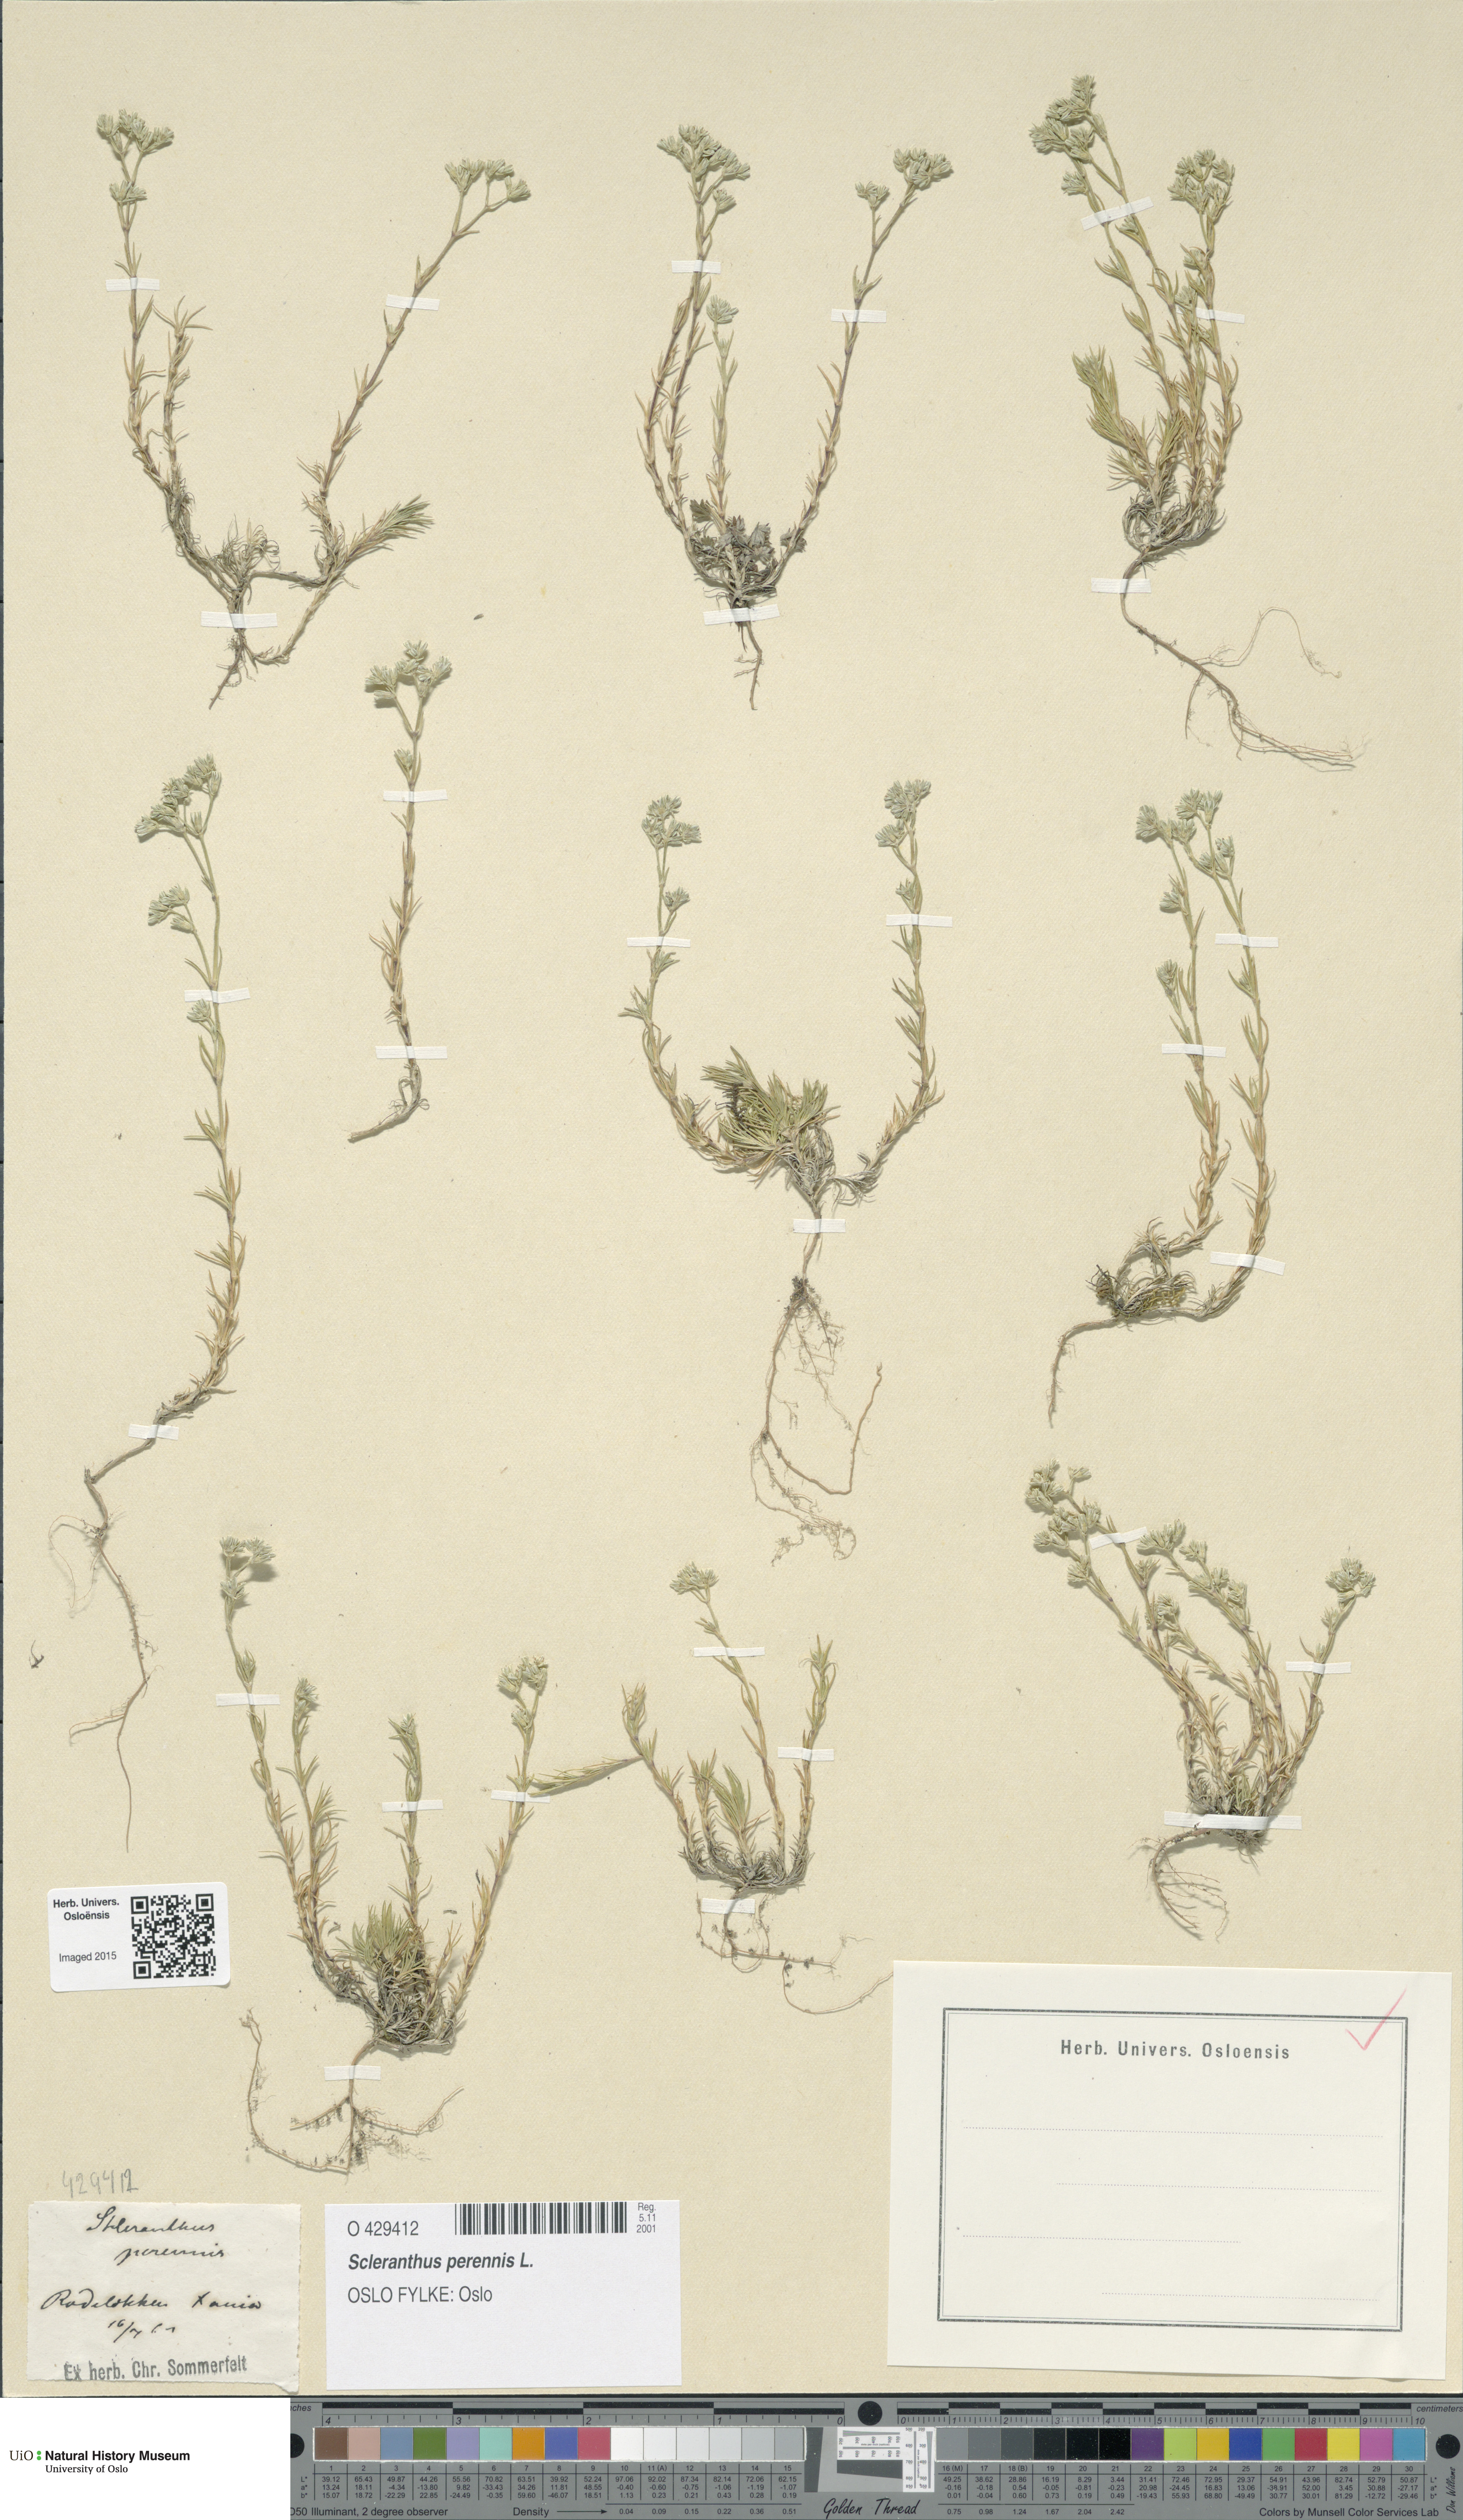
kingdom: Plantae
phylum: Tracheophyta
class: Magnoliopsida
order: Caryophyllales
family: Caryophyllaceae
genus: Scleranthus
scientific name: Scleranthus perennis
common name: Perennial knawel
